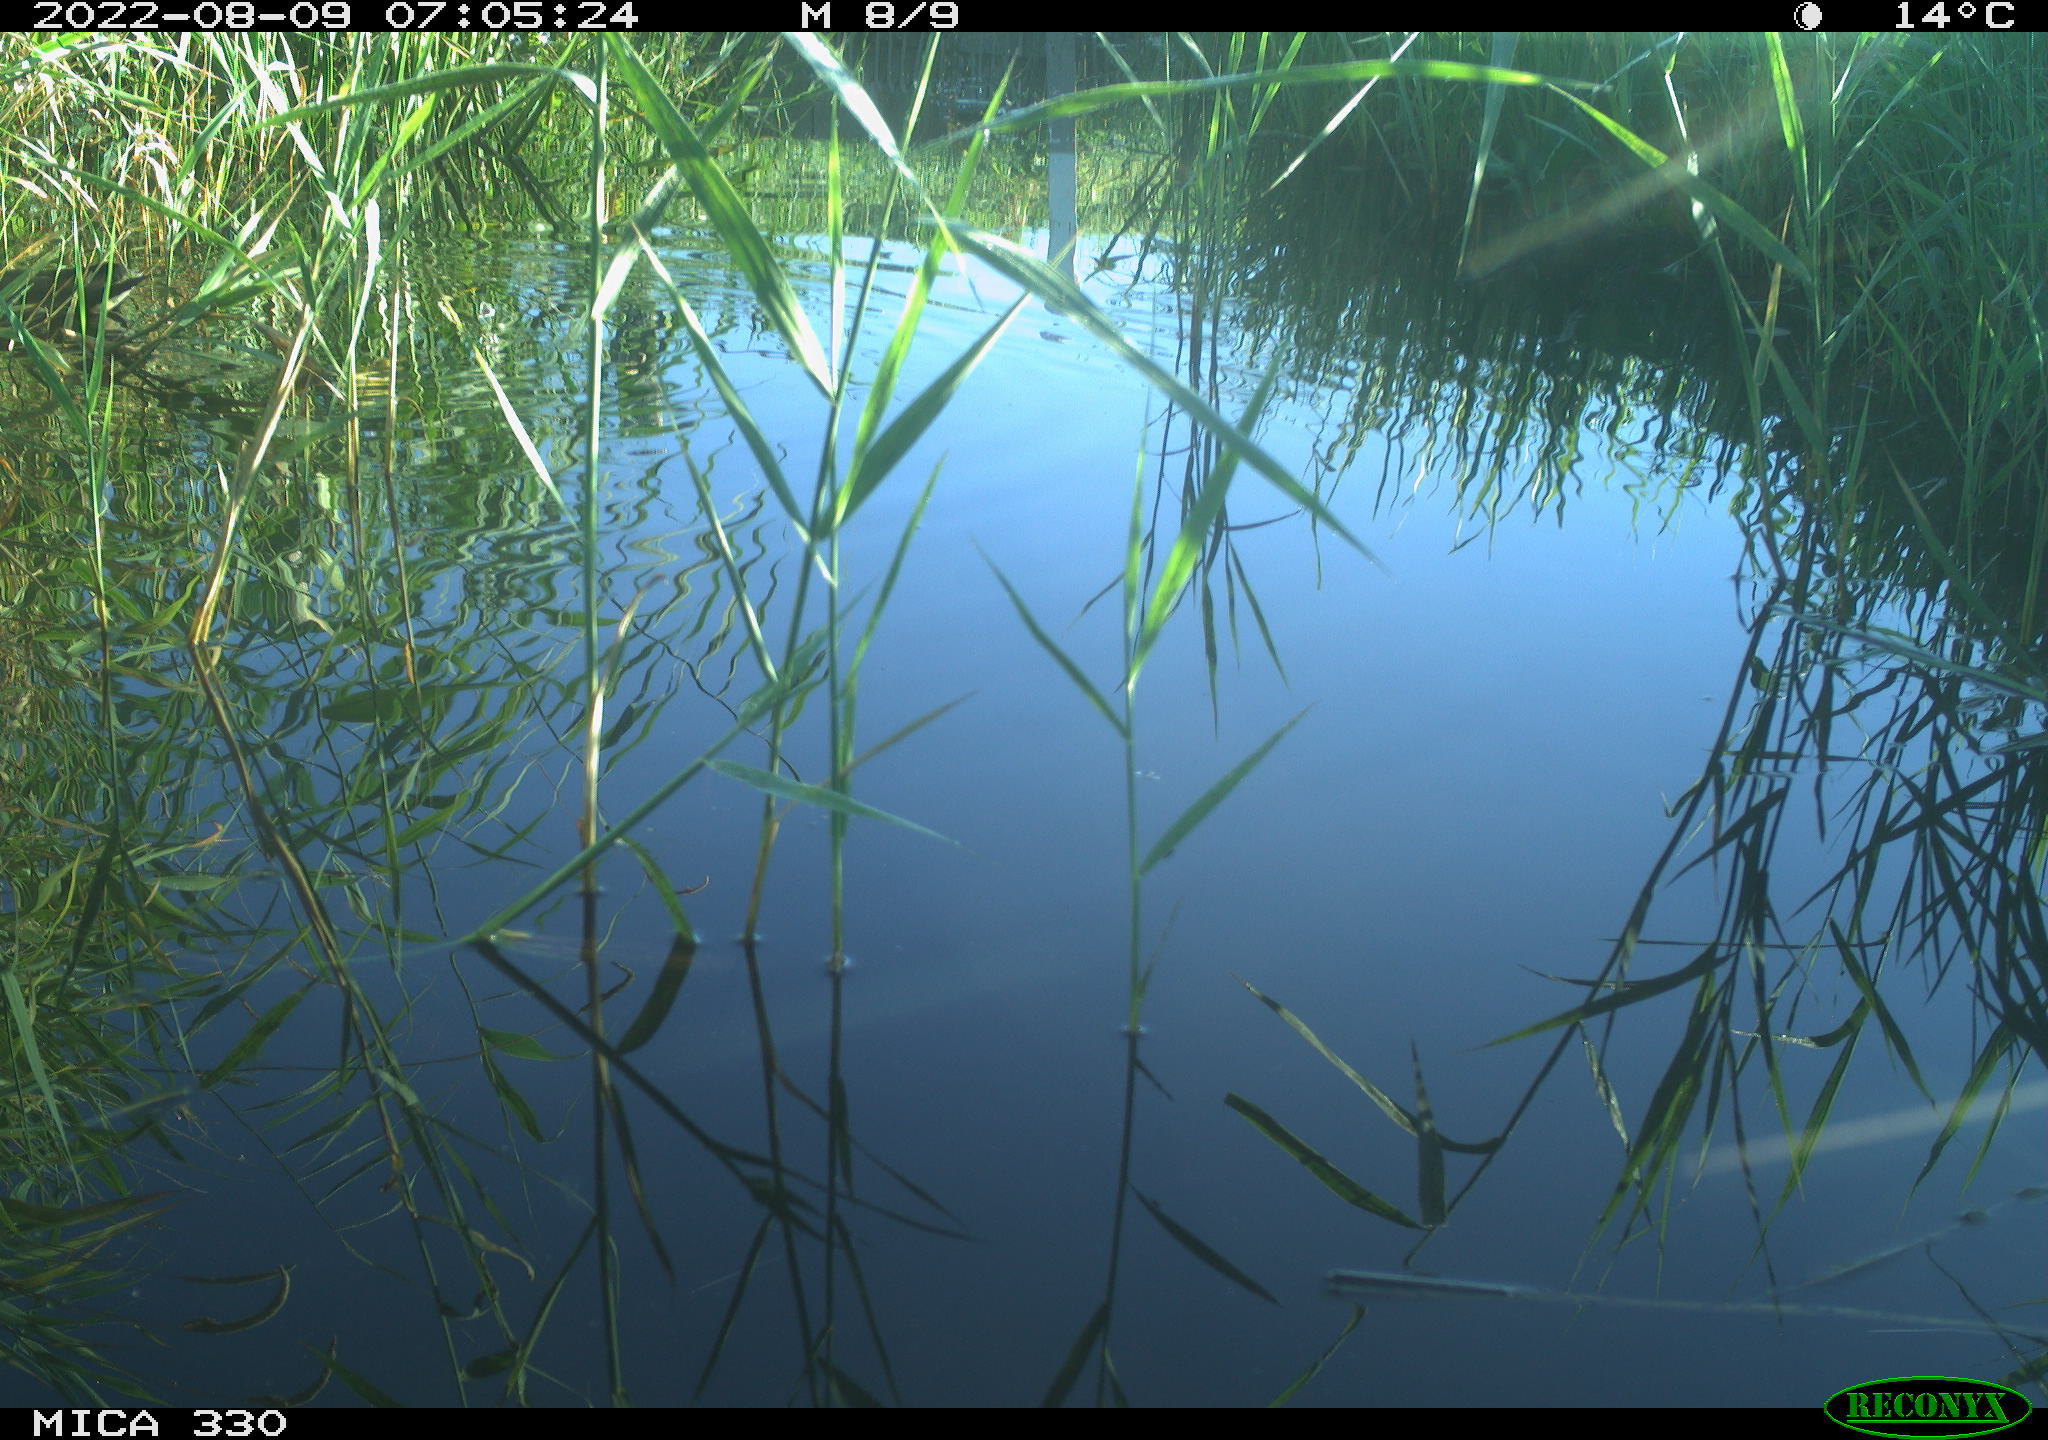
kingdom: Animalia
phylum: Chordata
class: Aves
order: Gruiformes
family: Rallidae
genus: Gallinula
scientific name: Gallinula chloropus
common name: Common moorhen
